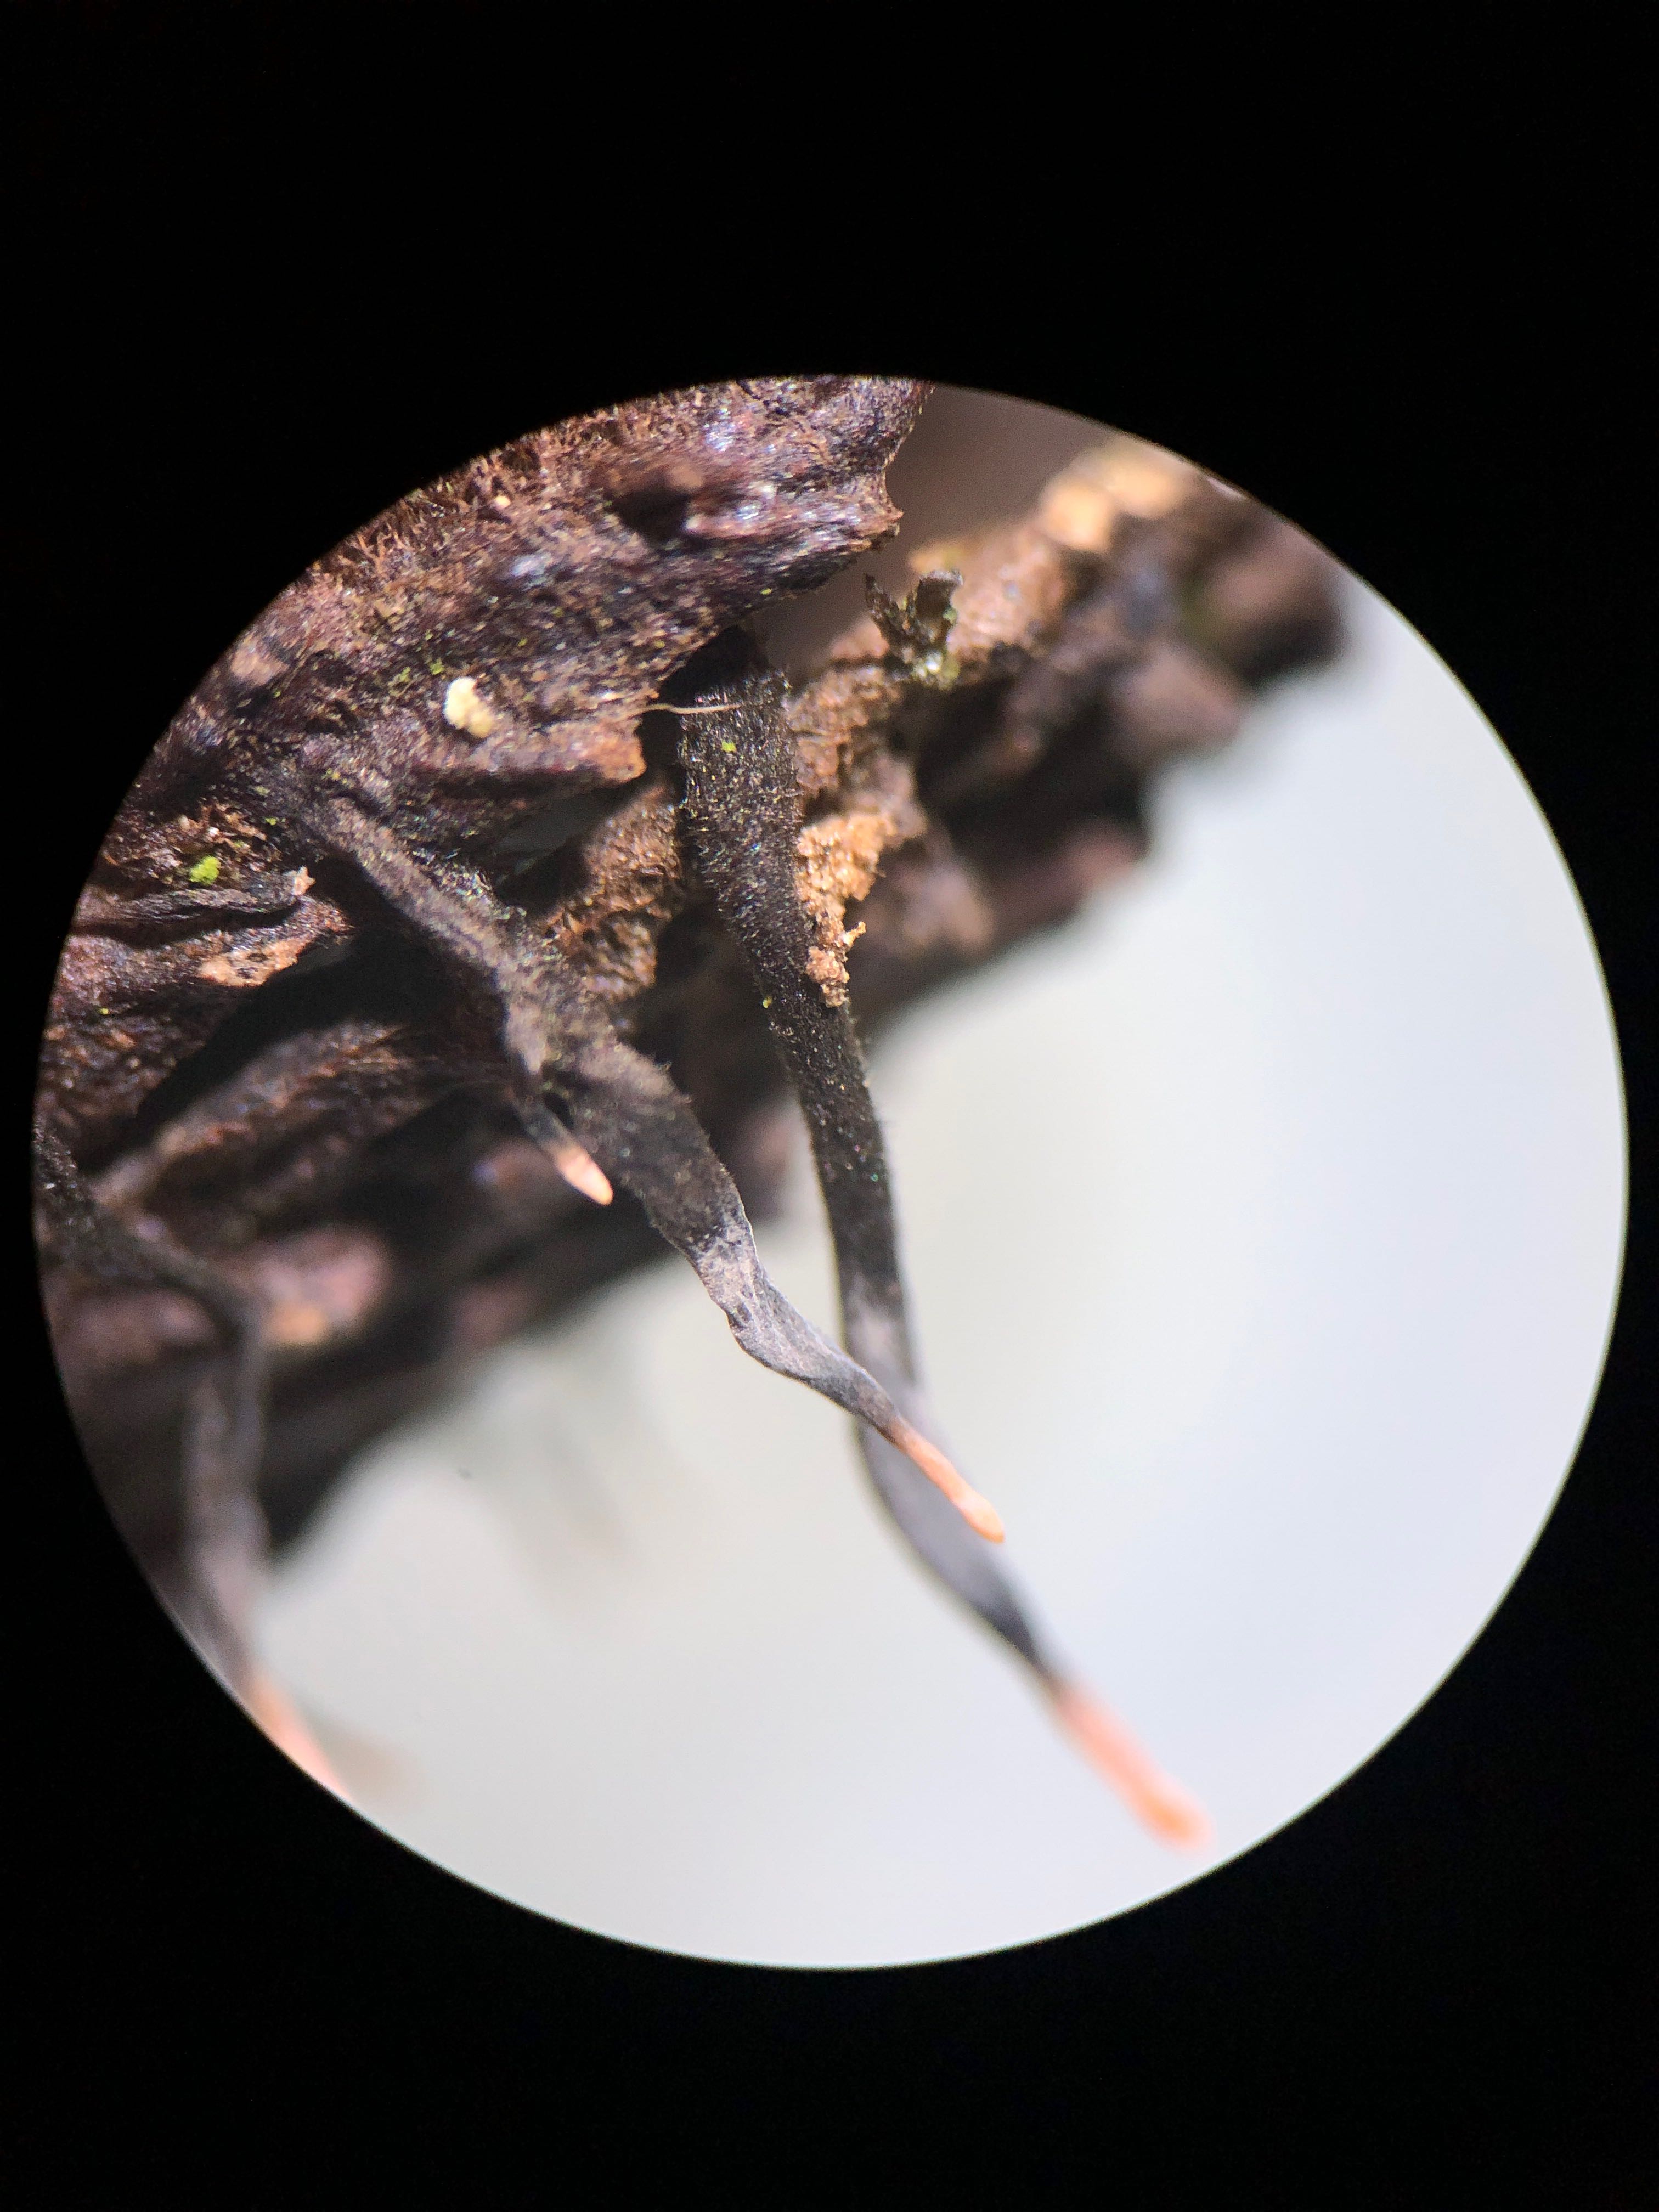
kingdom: Fungi
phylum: Ascomycota
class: Sordariomycetes
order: Xylariales
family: Xylariaceae
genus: Xylaria
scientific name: Xylaria carpophila
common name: bogskål-stødsvamp
